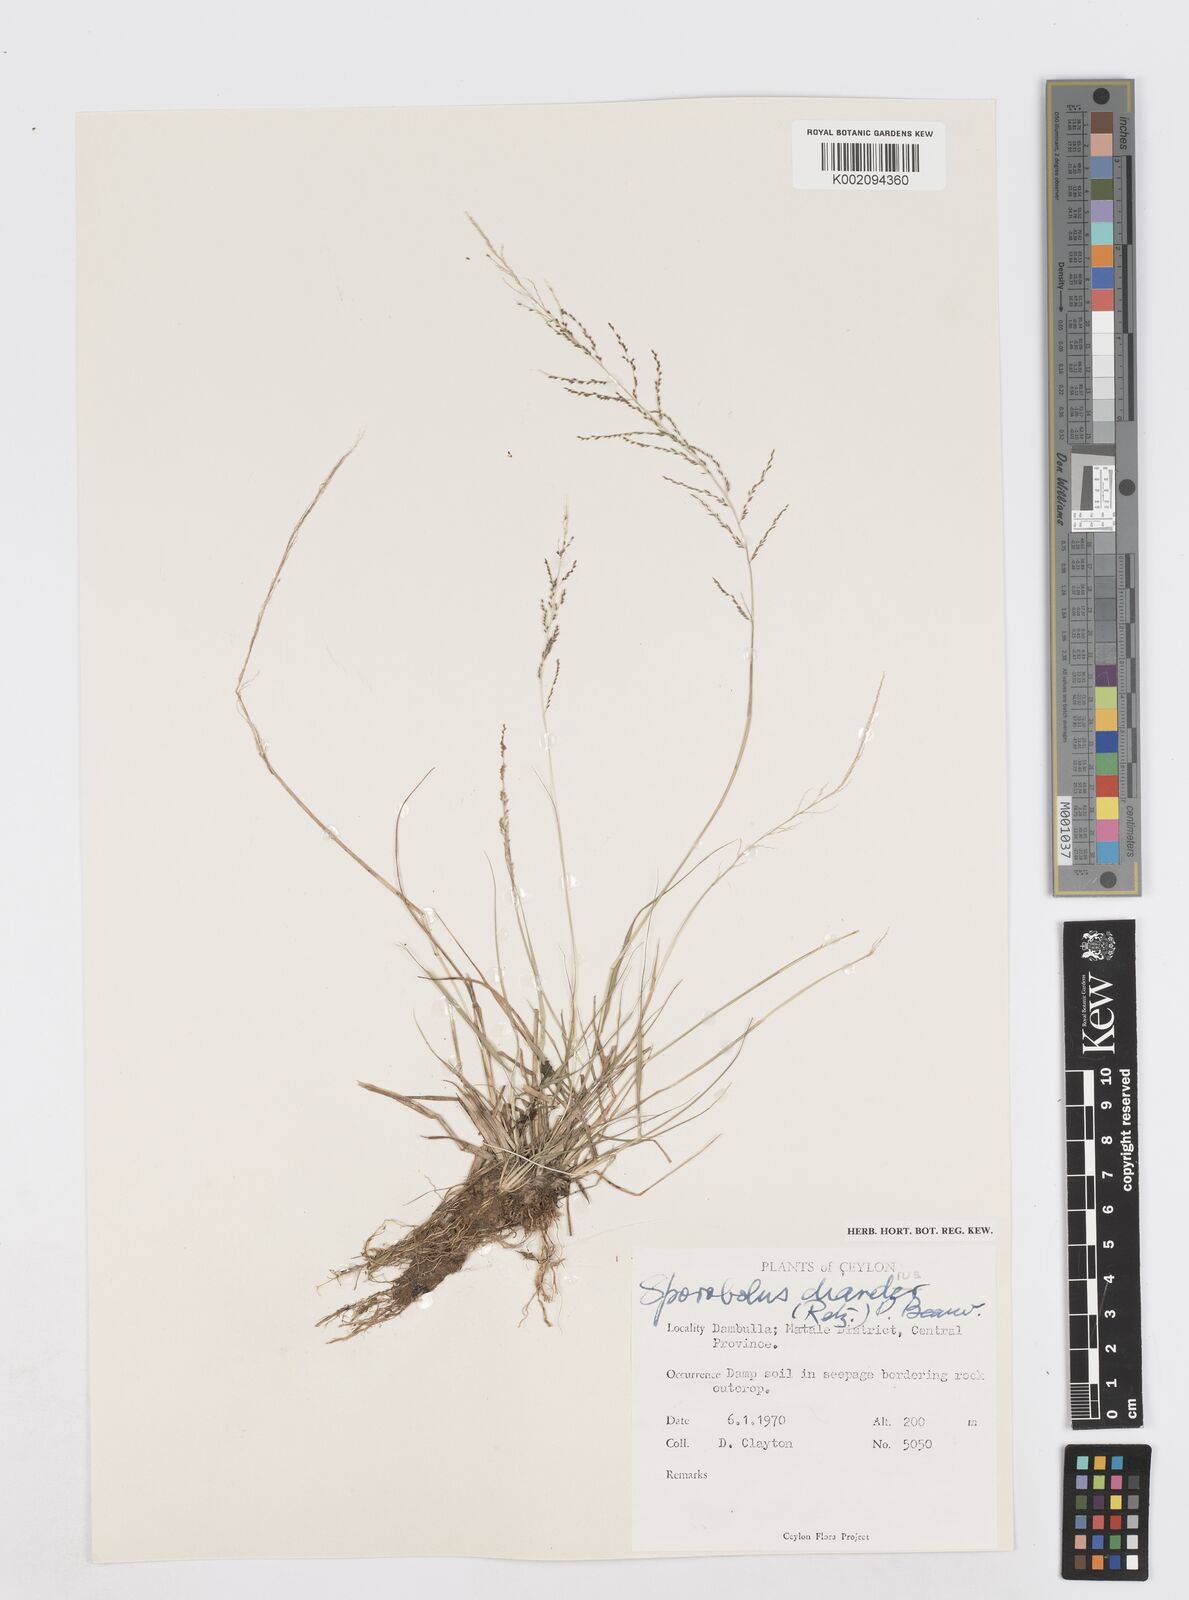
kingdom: Plantae
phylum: Tracheophyta
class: Liliopsida
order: Poales
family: Poaceae
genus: Sporobolus
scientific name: Sporobolus diandrus
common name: Tussock dropseed
